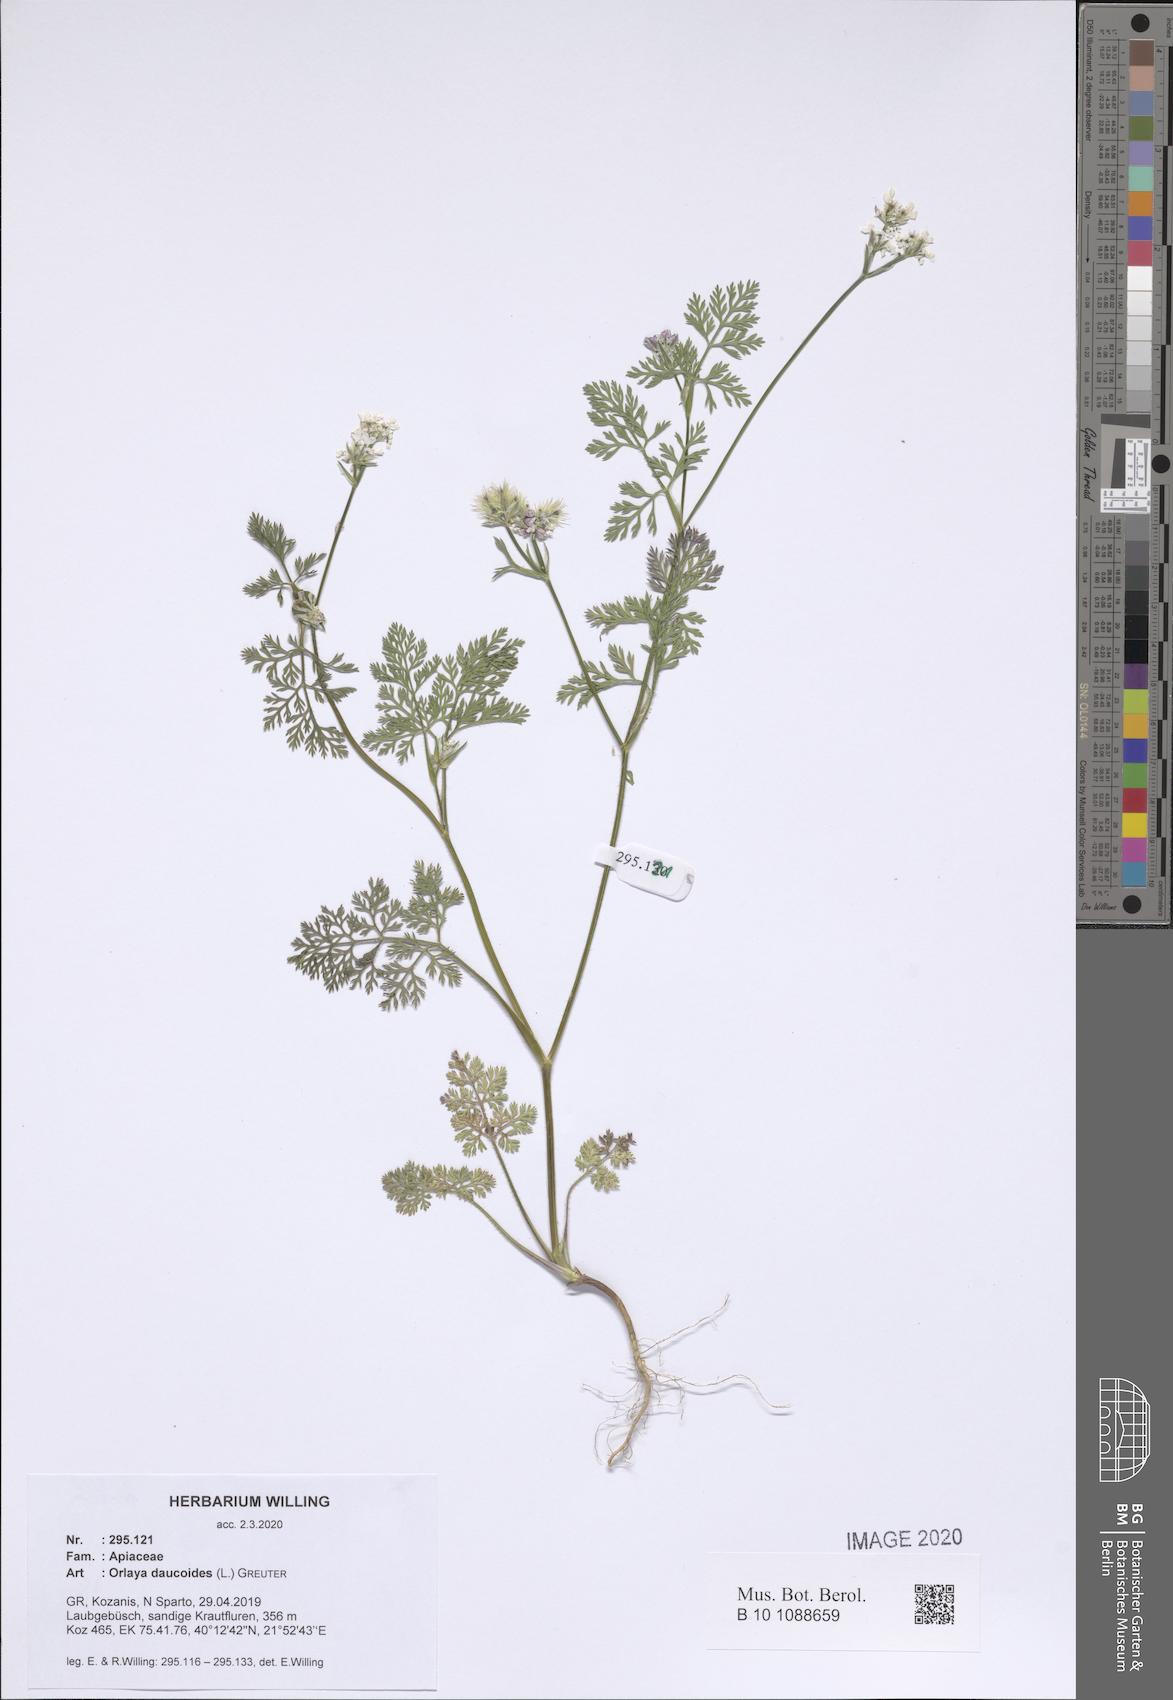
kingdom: Plantae
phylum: Tracheophyta
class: Magnoliopsida
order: Apiales
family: Apiaceae
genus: Orlaya
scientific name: Orlaya daucoides
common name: Flat-fruit orlaya
